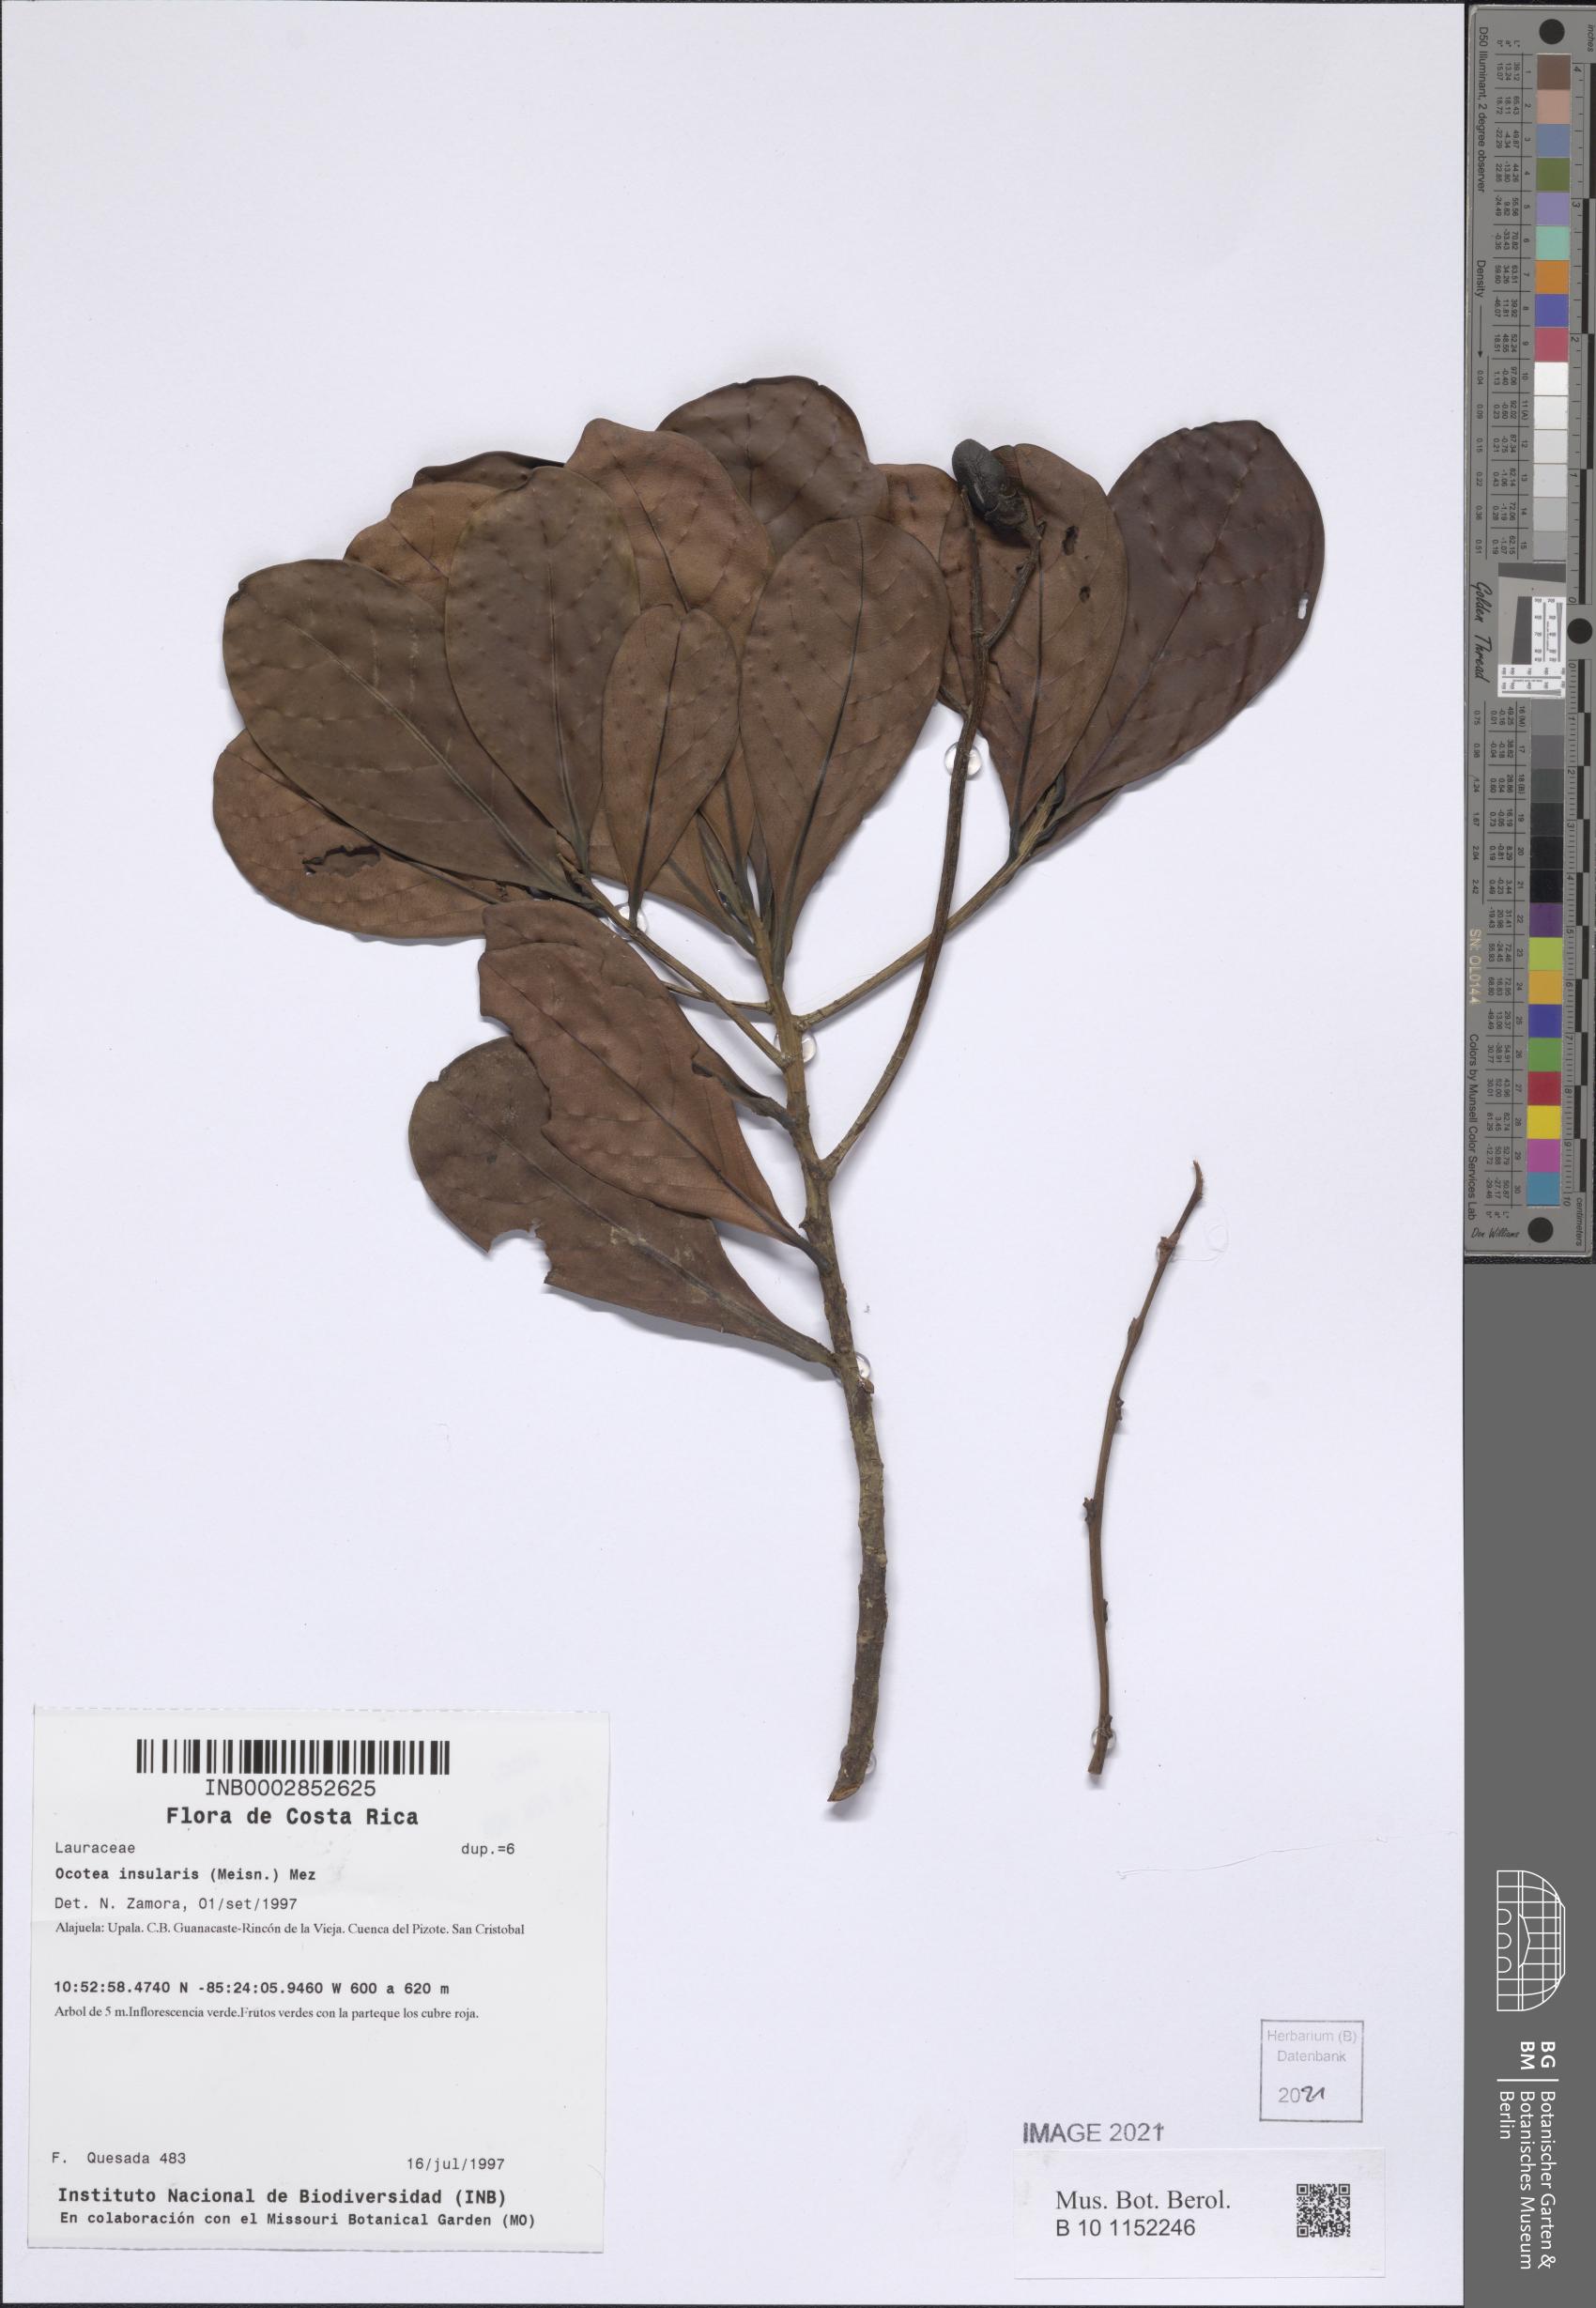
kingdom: Plantae
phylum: Tracheophyta
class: Magnoliopsida
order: Laurales
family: Lauraceae
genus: Ocotea
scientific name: Ocotea insularis
